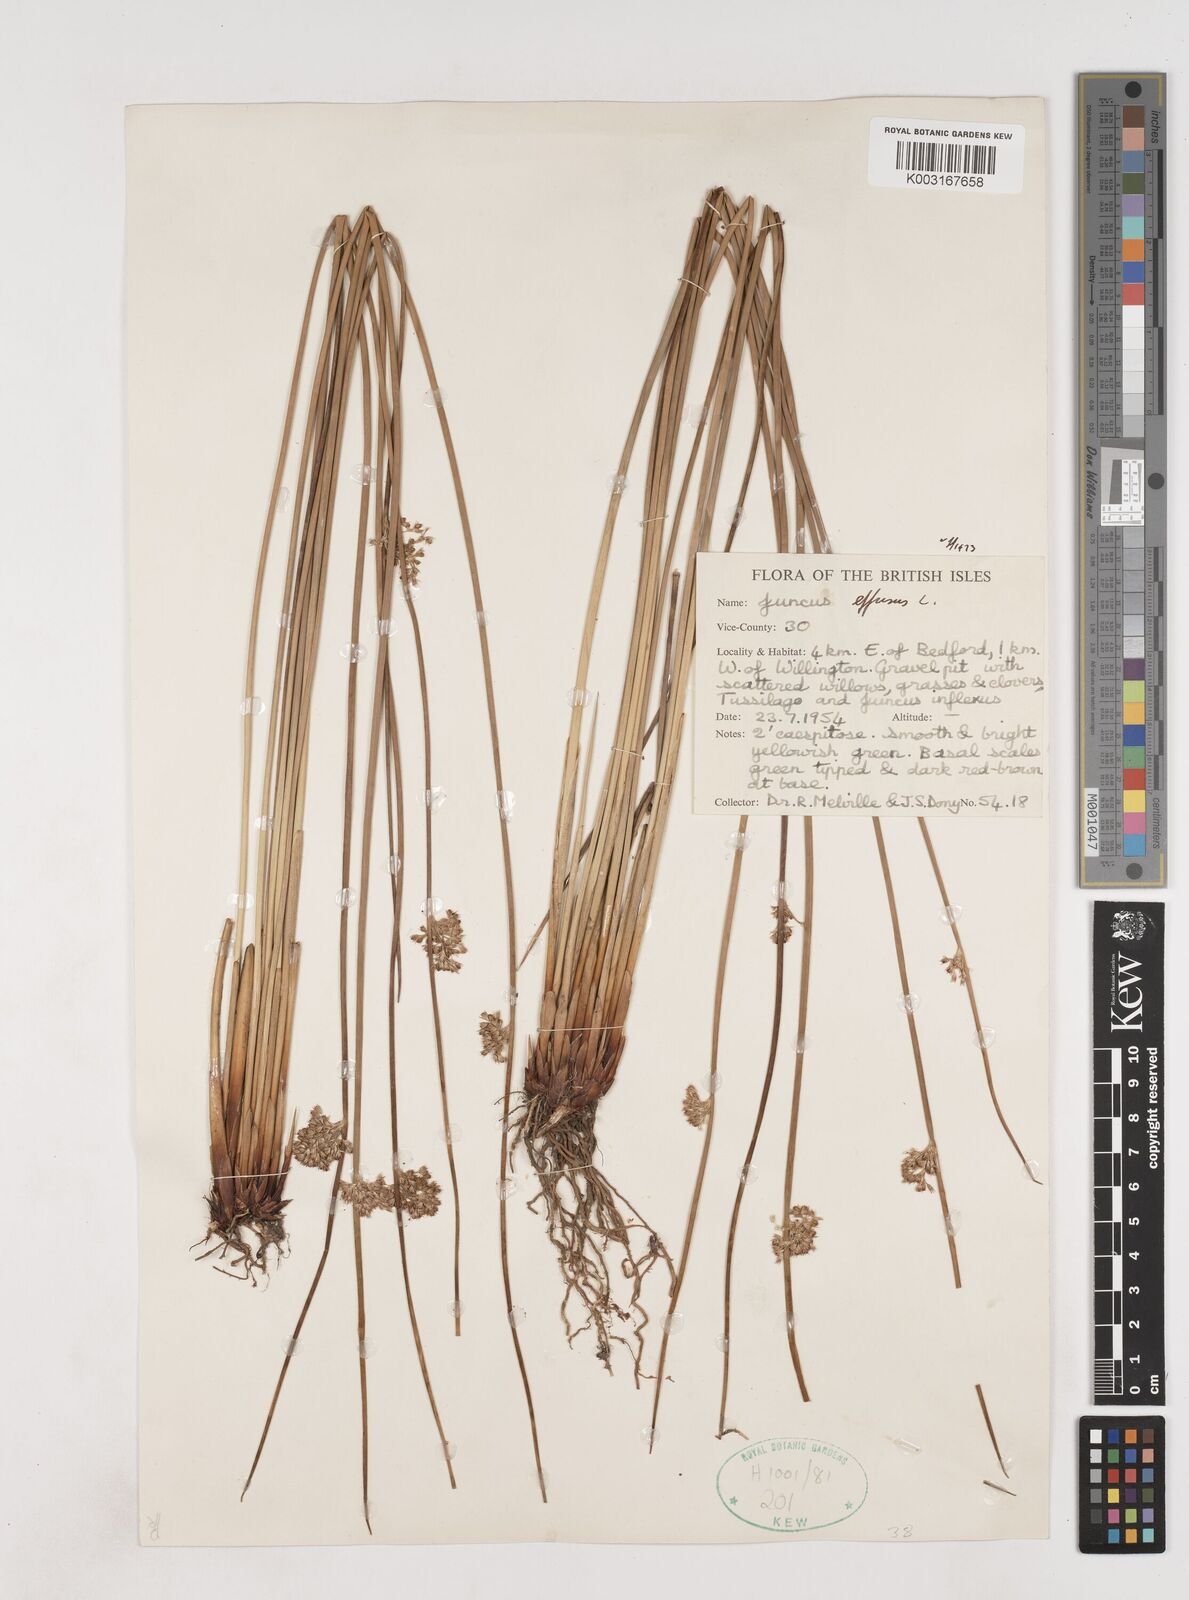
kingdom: Plantae
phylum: Tracheophyta
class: Liliopsida
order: Poales
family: Juncaceae
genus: Juncus
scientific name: Juncus effusus
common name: Soft rush
